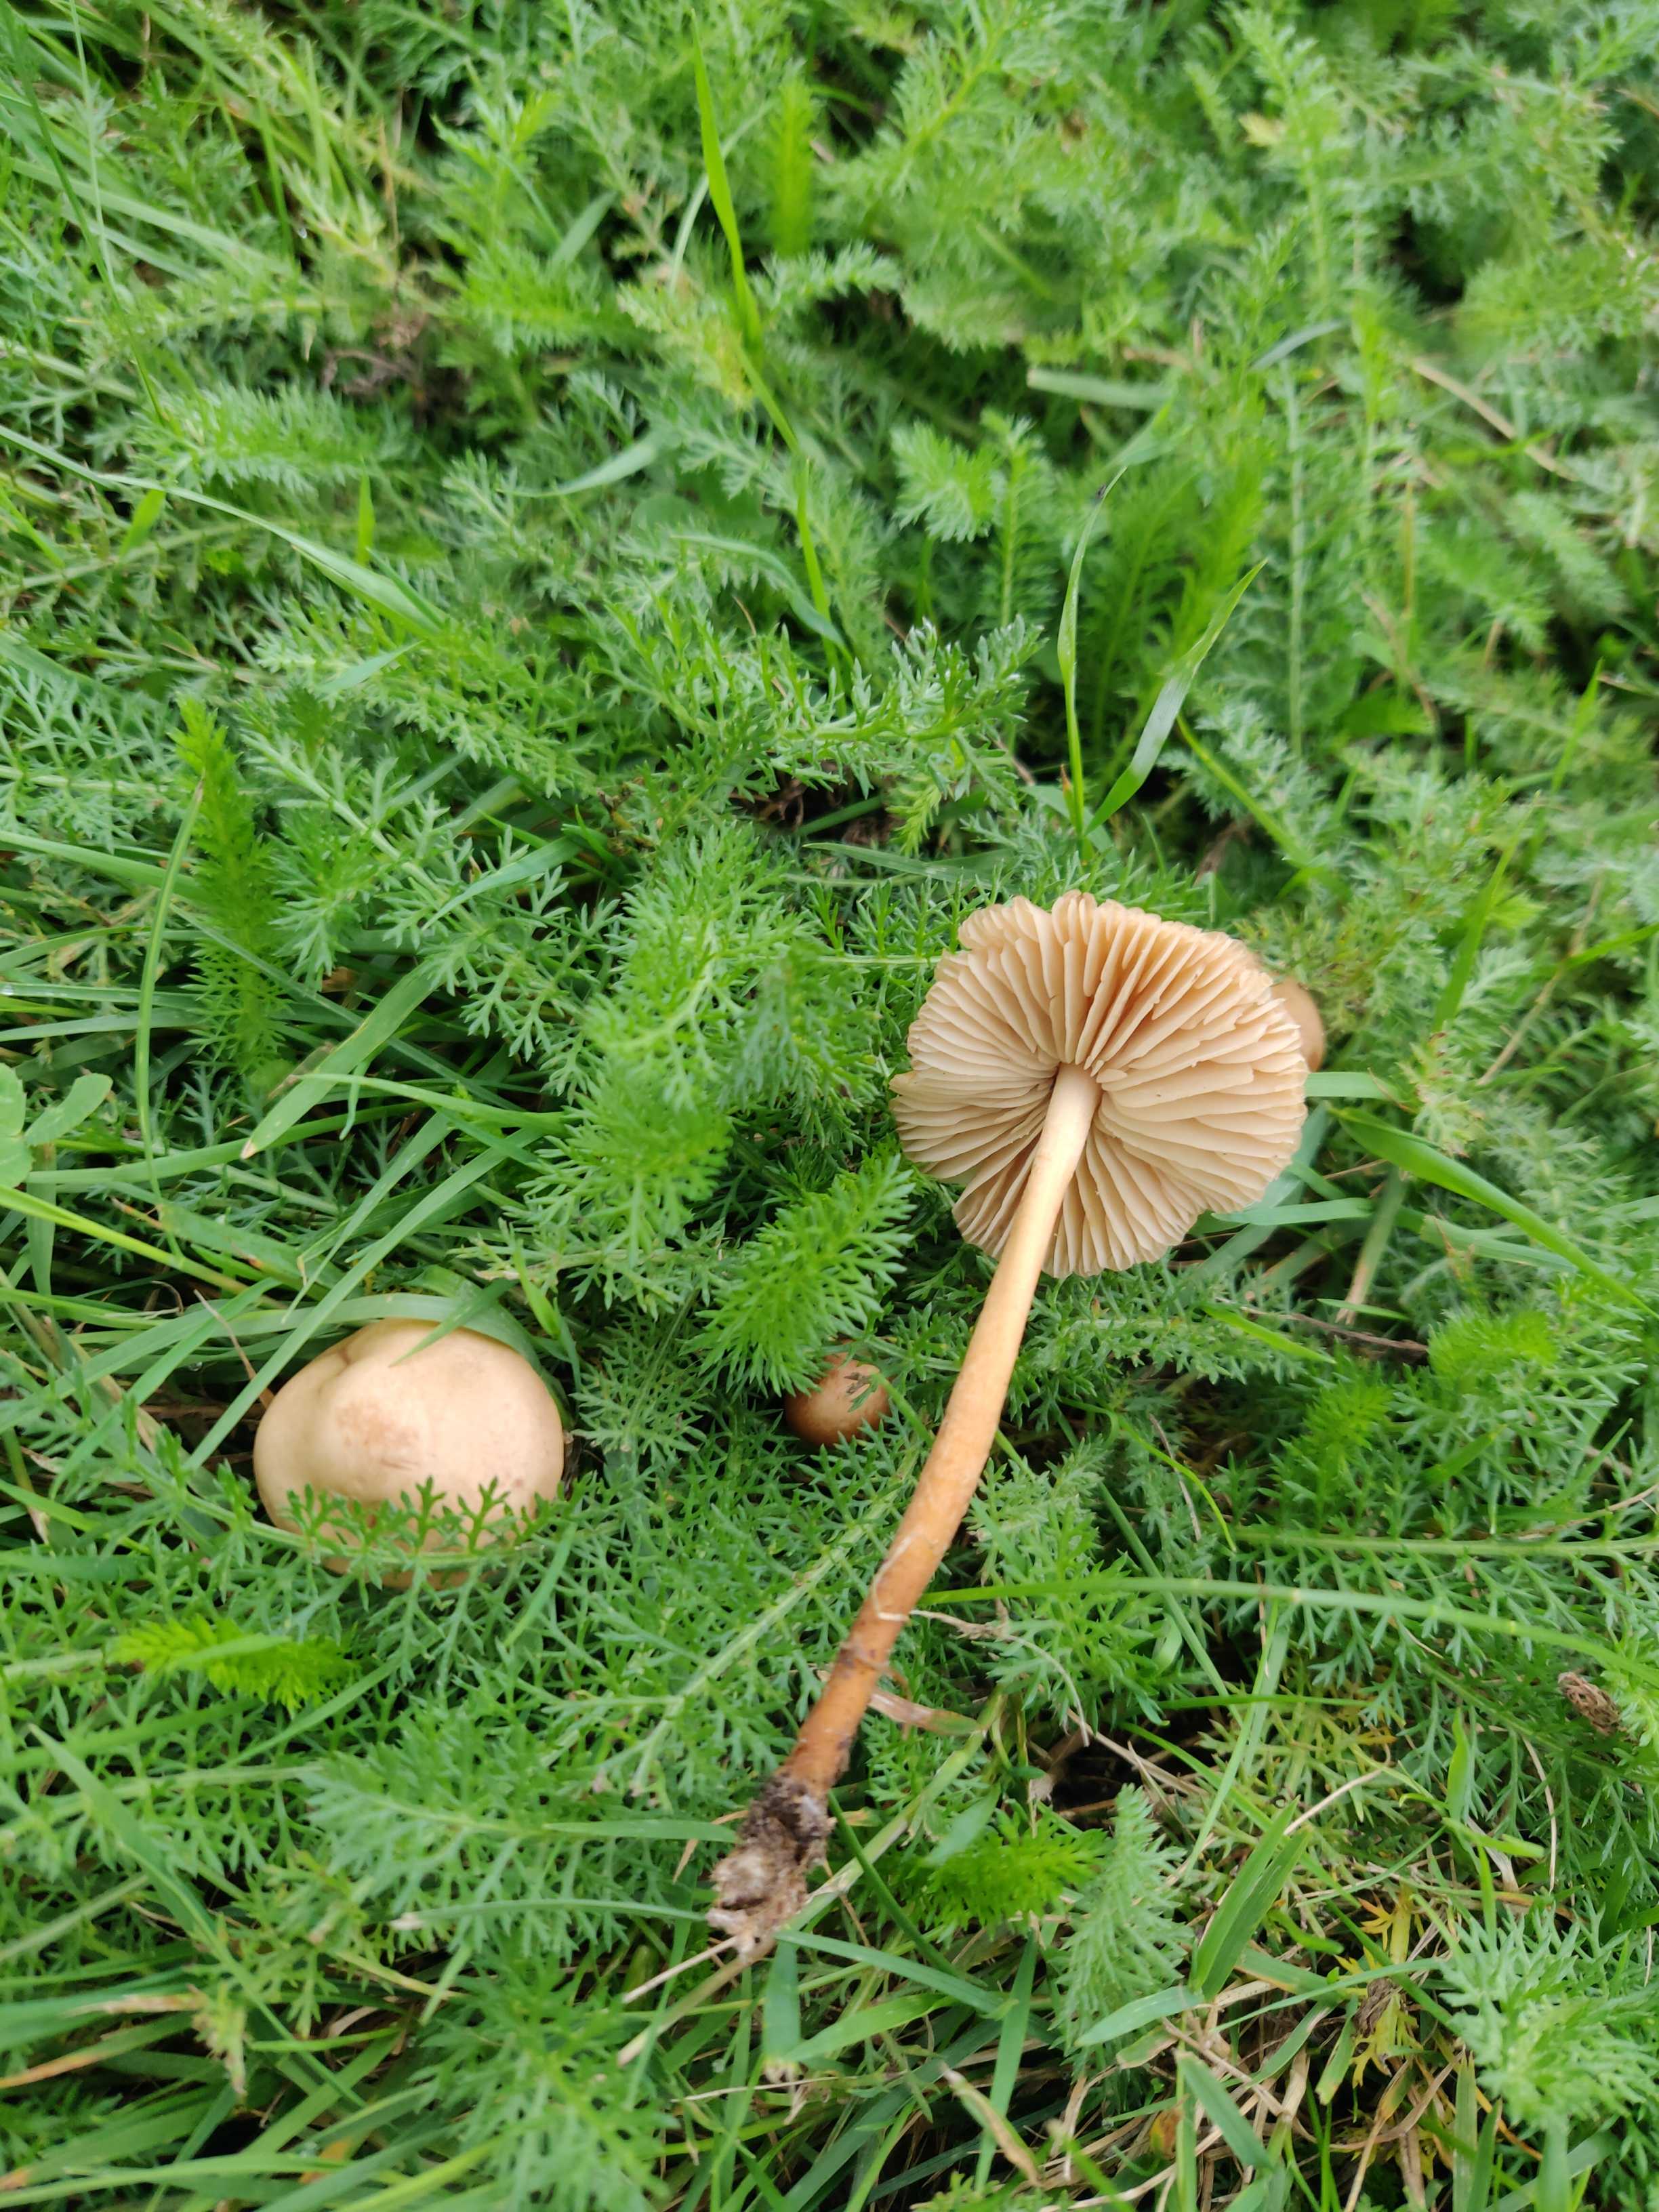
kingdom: Fungi
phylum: Basidiomycota
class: Agaricomycetes
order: Agaricales
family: Marasmiaceae
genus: Marasmius
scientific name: Marasmius oreades
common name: elledans-bruskhat
